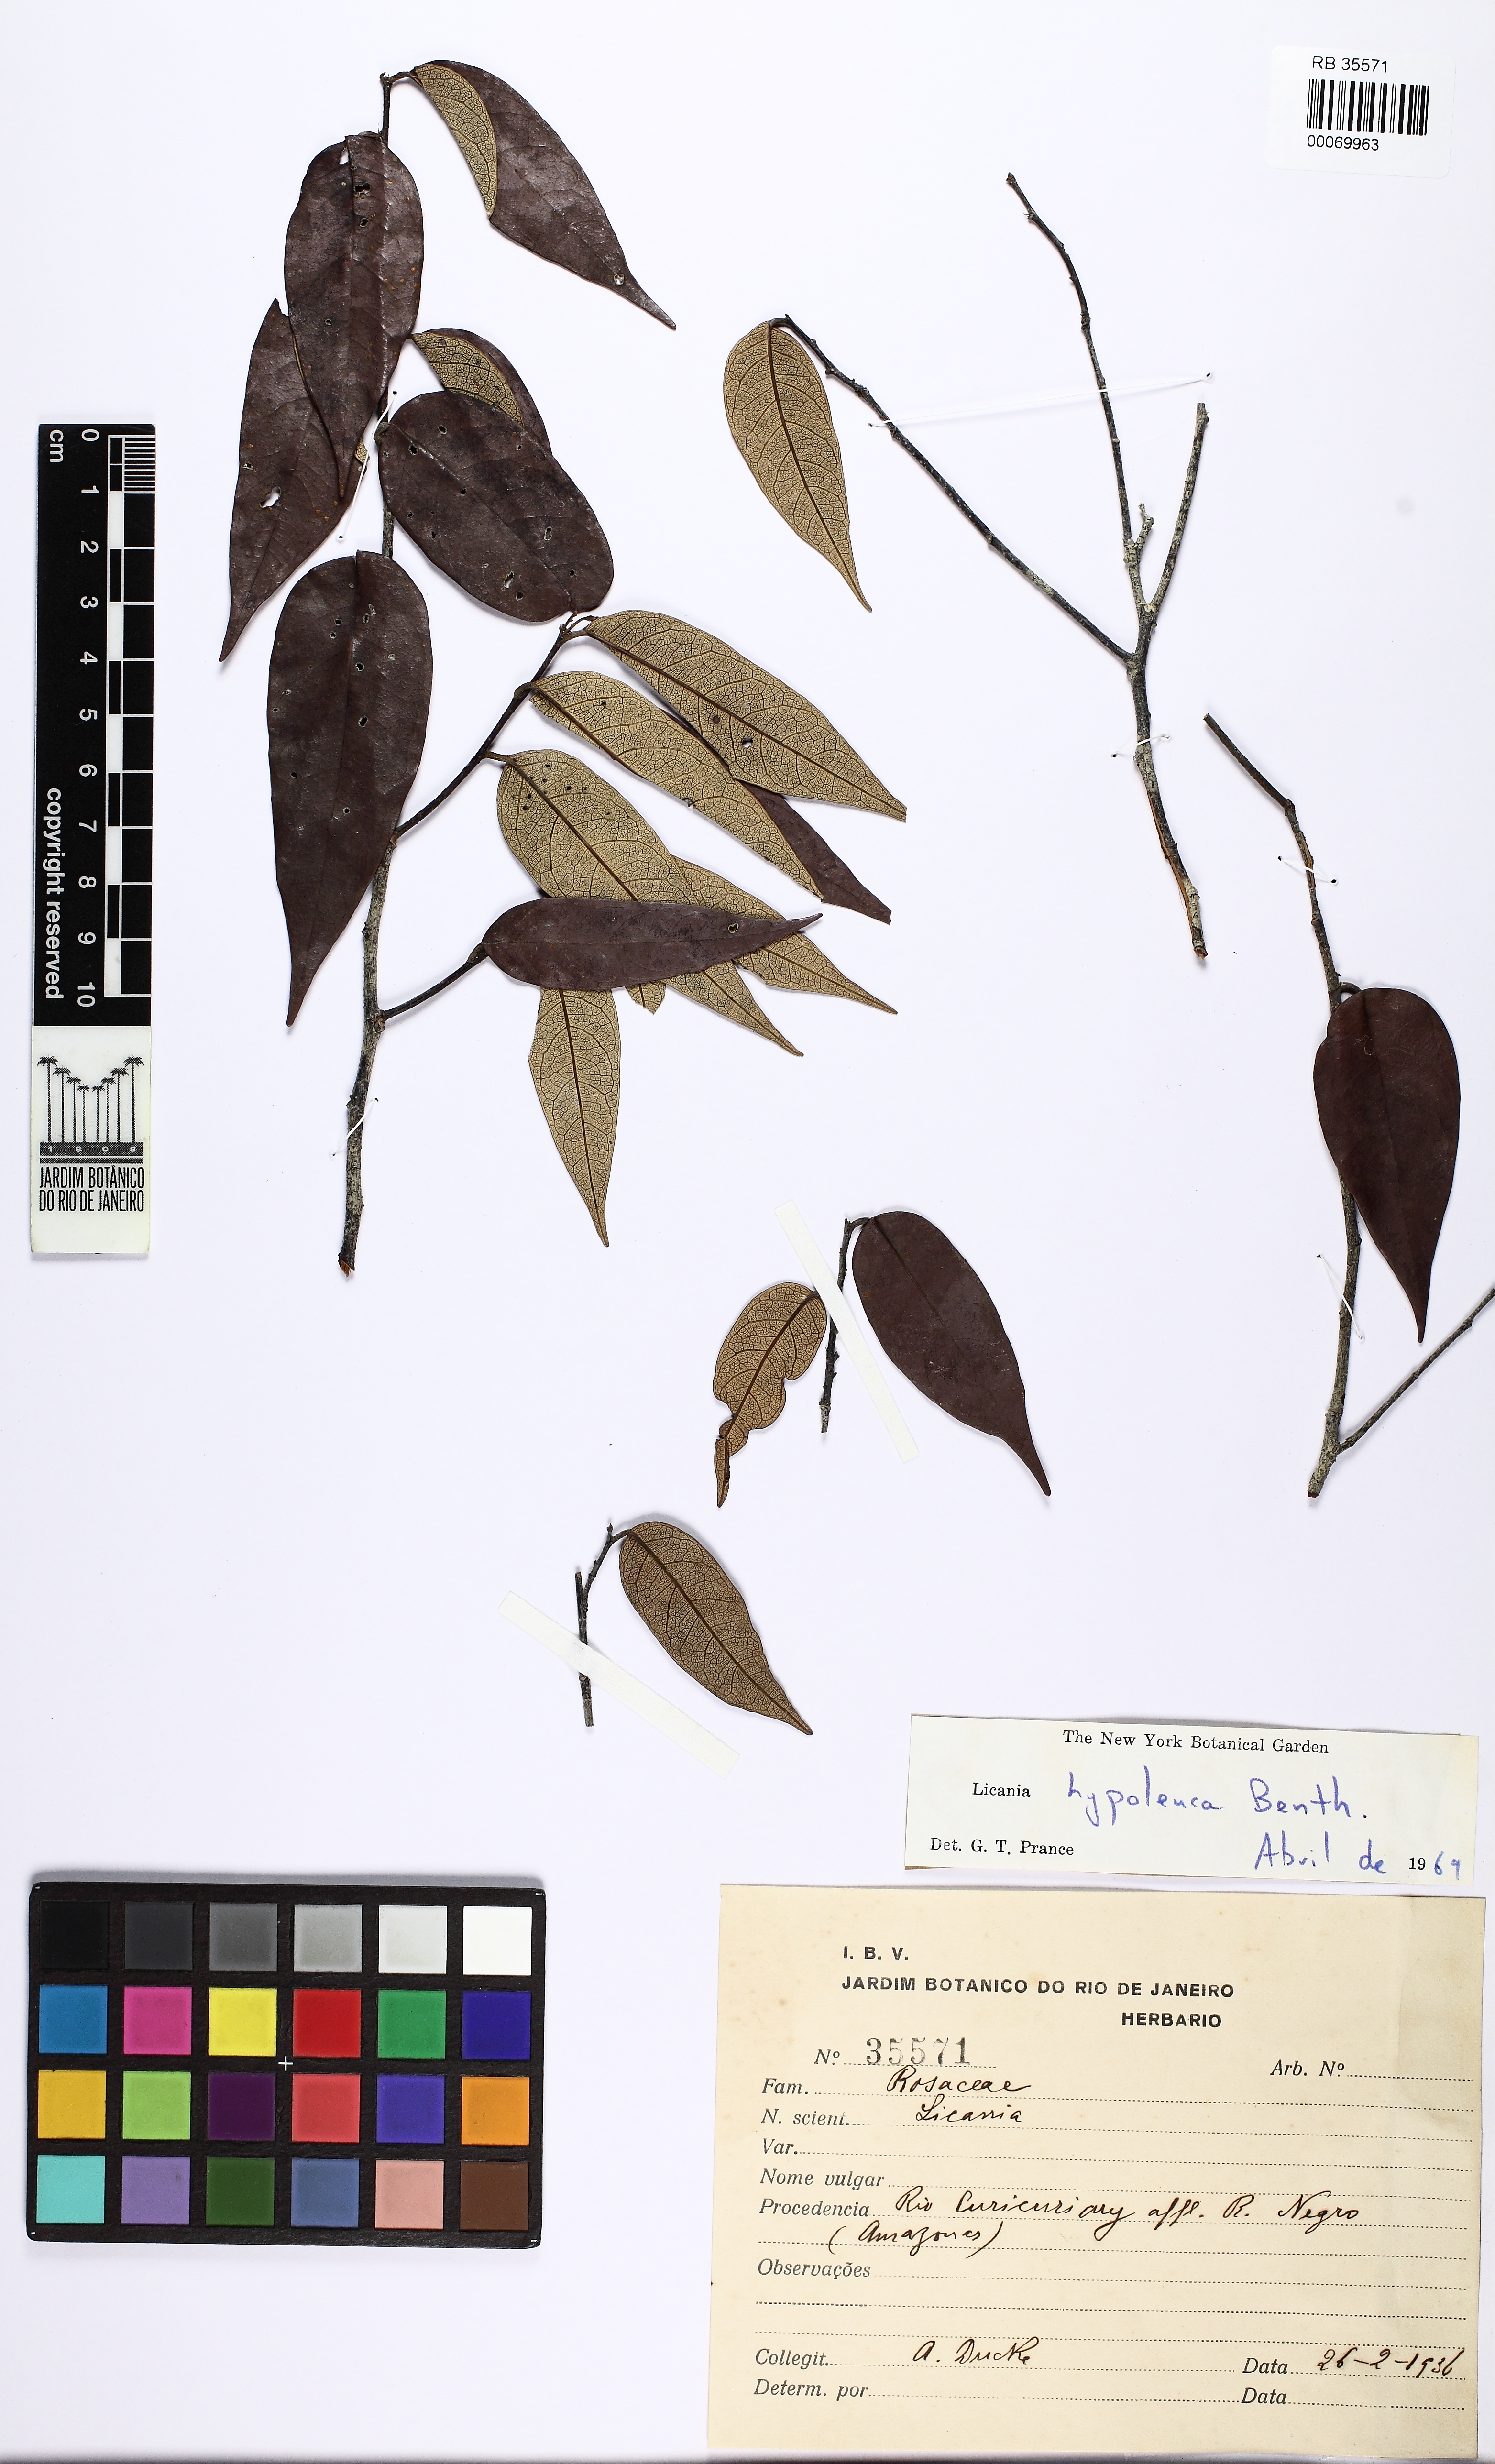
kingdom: Plantae
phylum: Tracheophyta
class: Magnoliopsida
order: Malpighiales
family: Chrysobalanaceae
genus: Licania
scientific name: Licania hypoleuca
